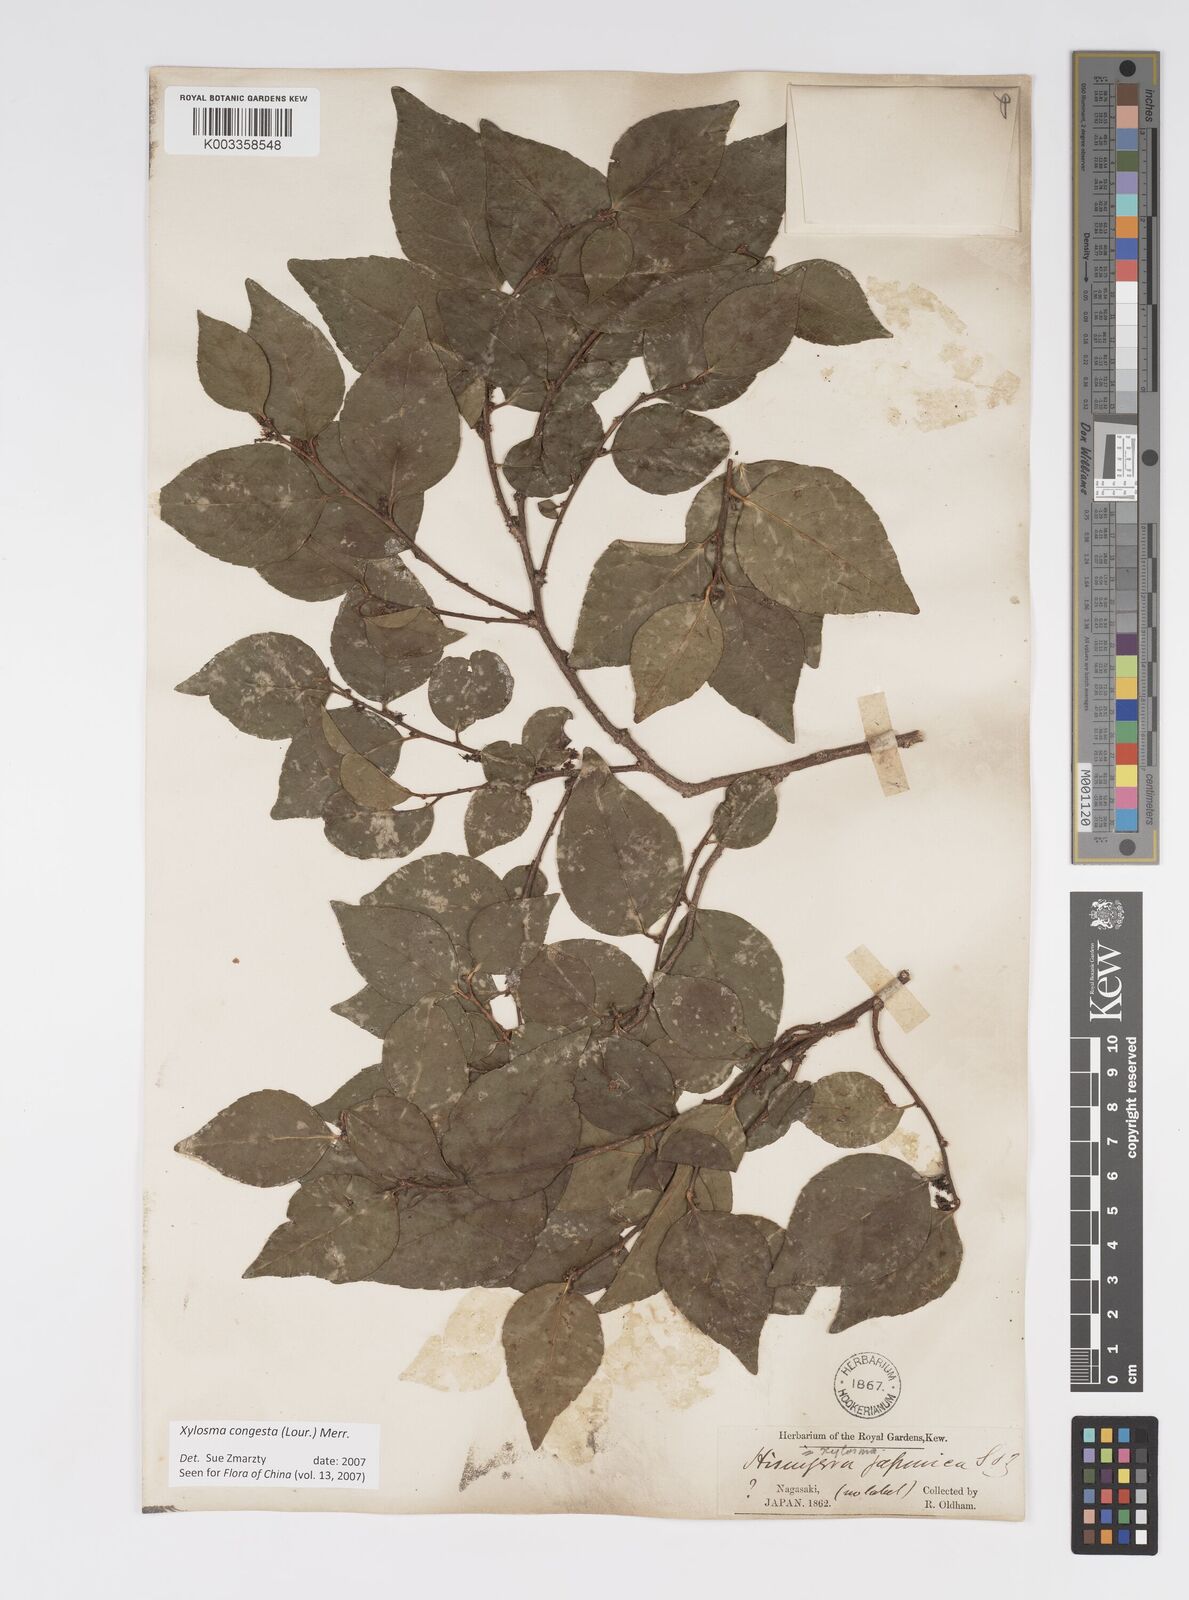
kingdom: Plantae
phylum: Tracheophyta
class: Magnoliopsida
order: Malpighiales
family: Salicaceae
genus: Xylosma
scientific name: Xylosma racemosum
